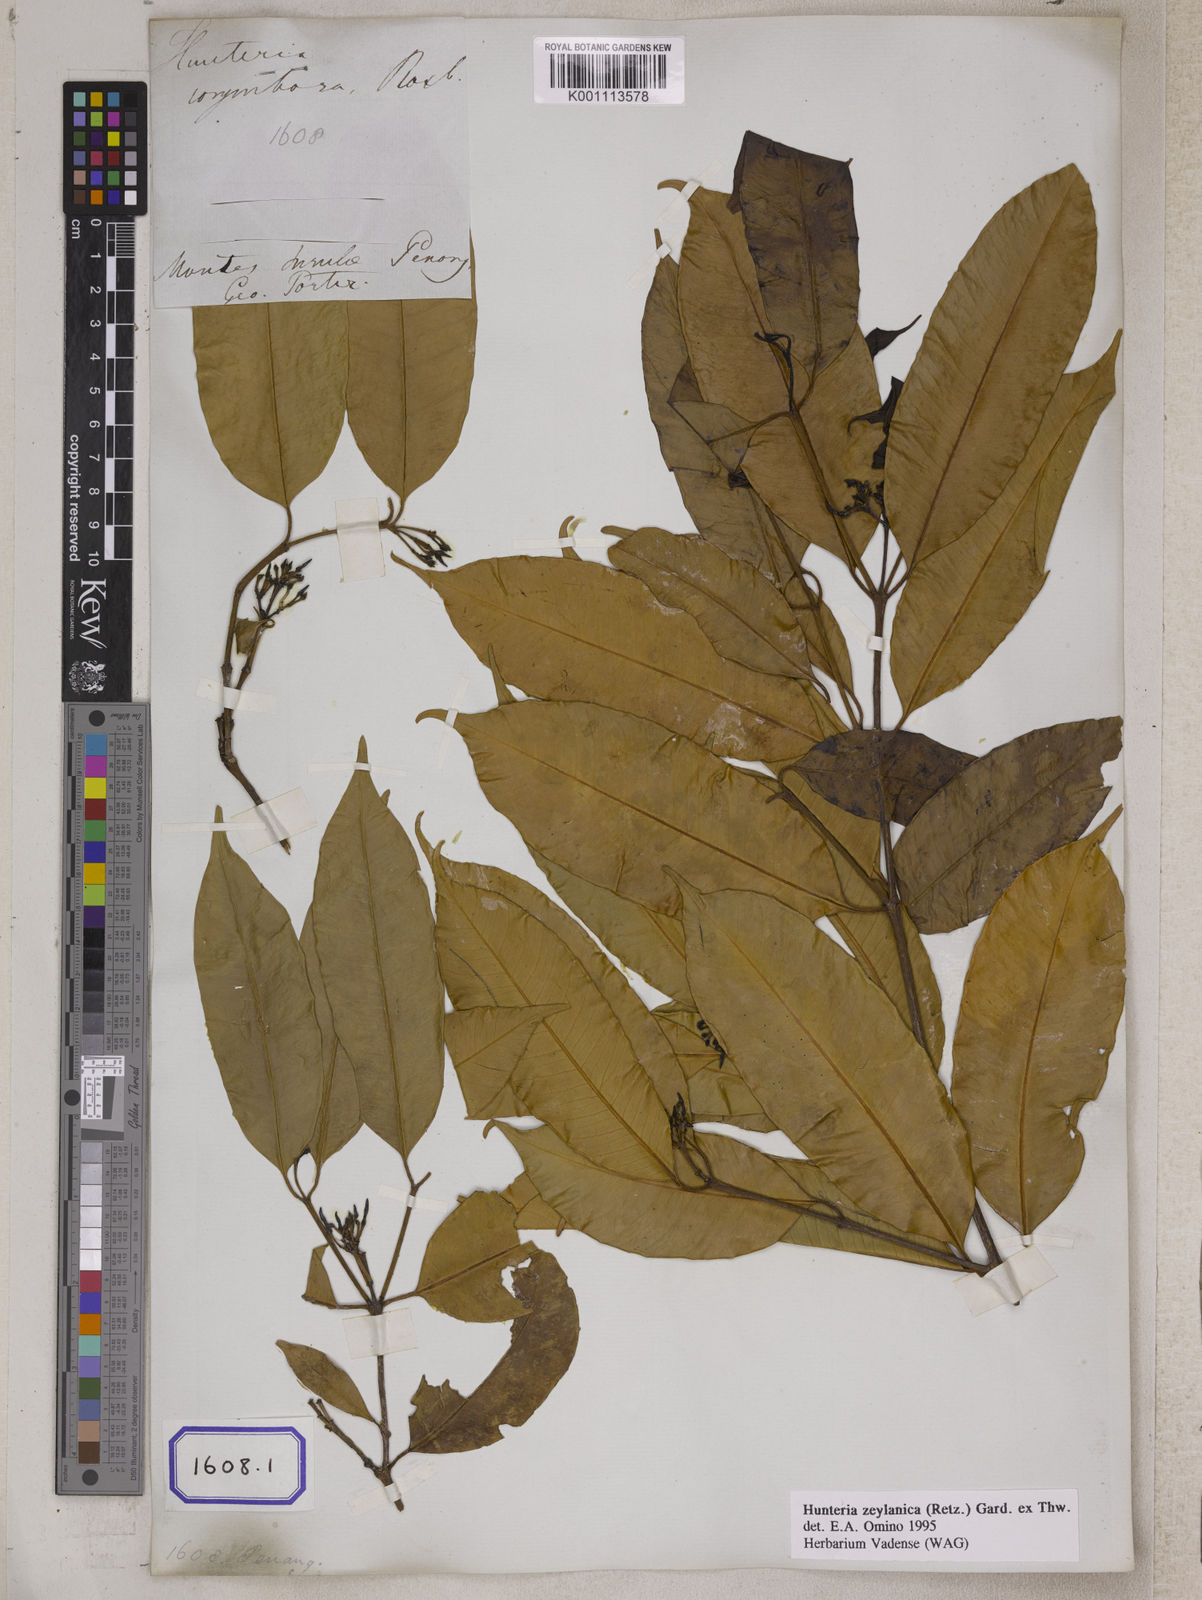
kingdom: Plantae
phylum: Tracheophyta
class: Magnoliopsida
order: Gentianales
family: Apocynaceae
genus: Hunteria
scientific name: Hunteria zeylanica
